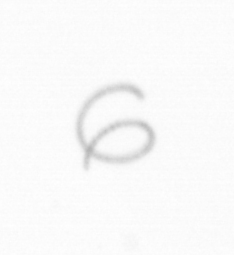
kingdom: Chromista
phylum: Ochrophyta
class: Bacillariophyceae
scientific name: Bacillariophyceae
